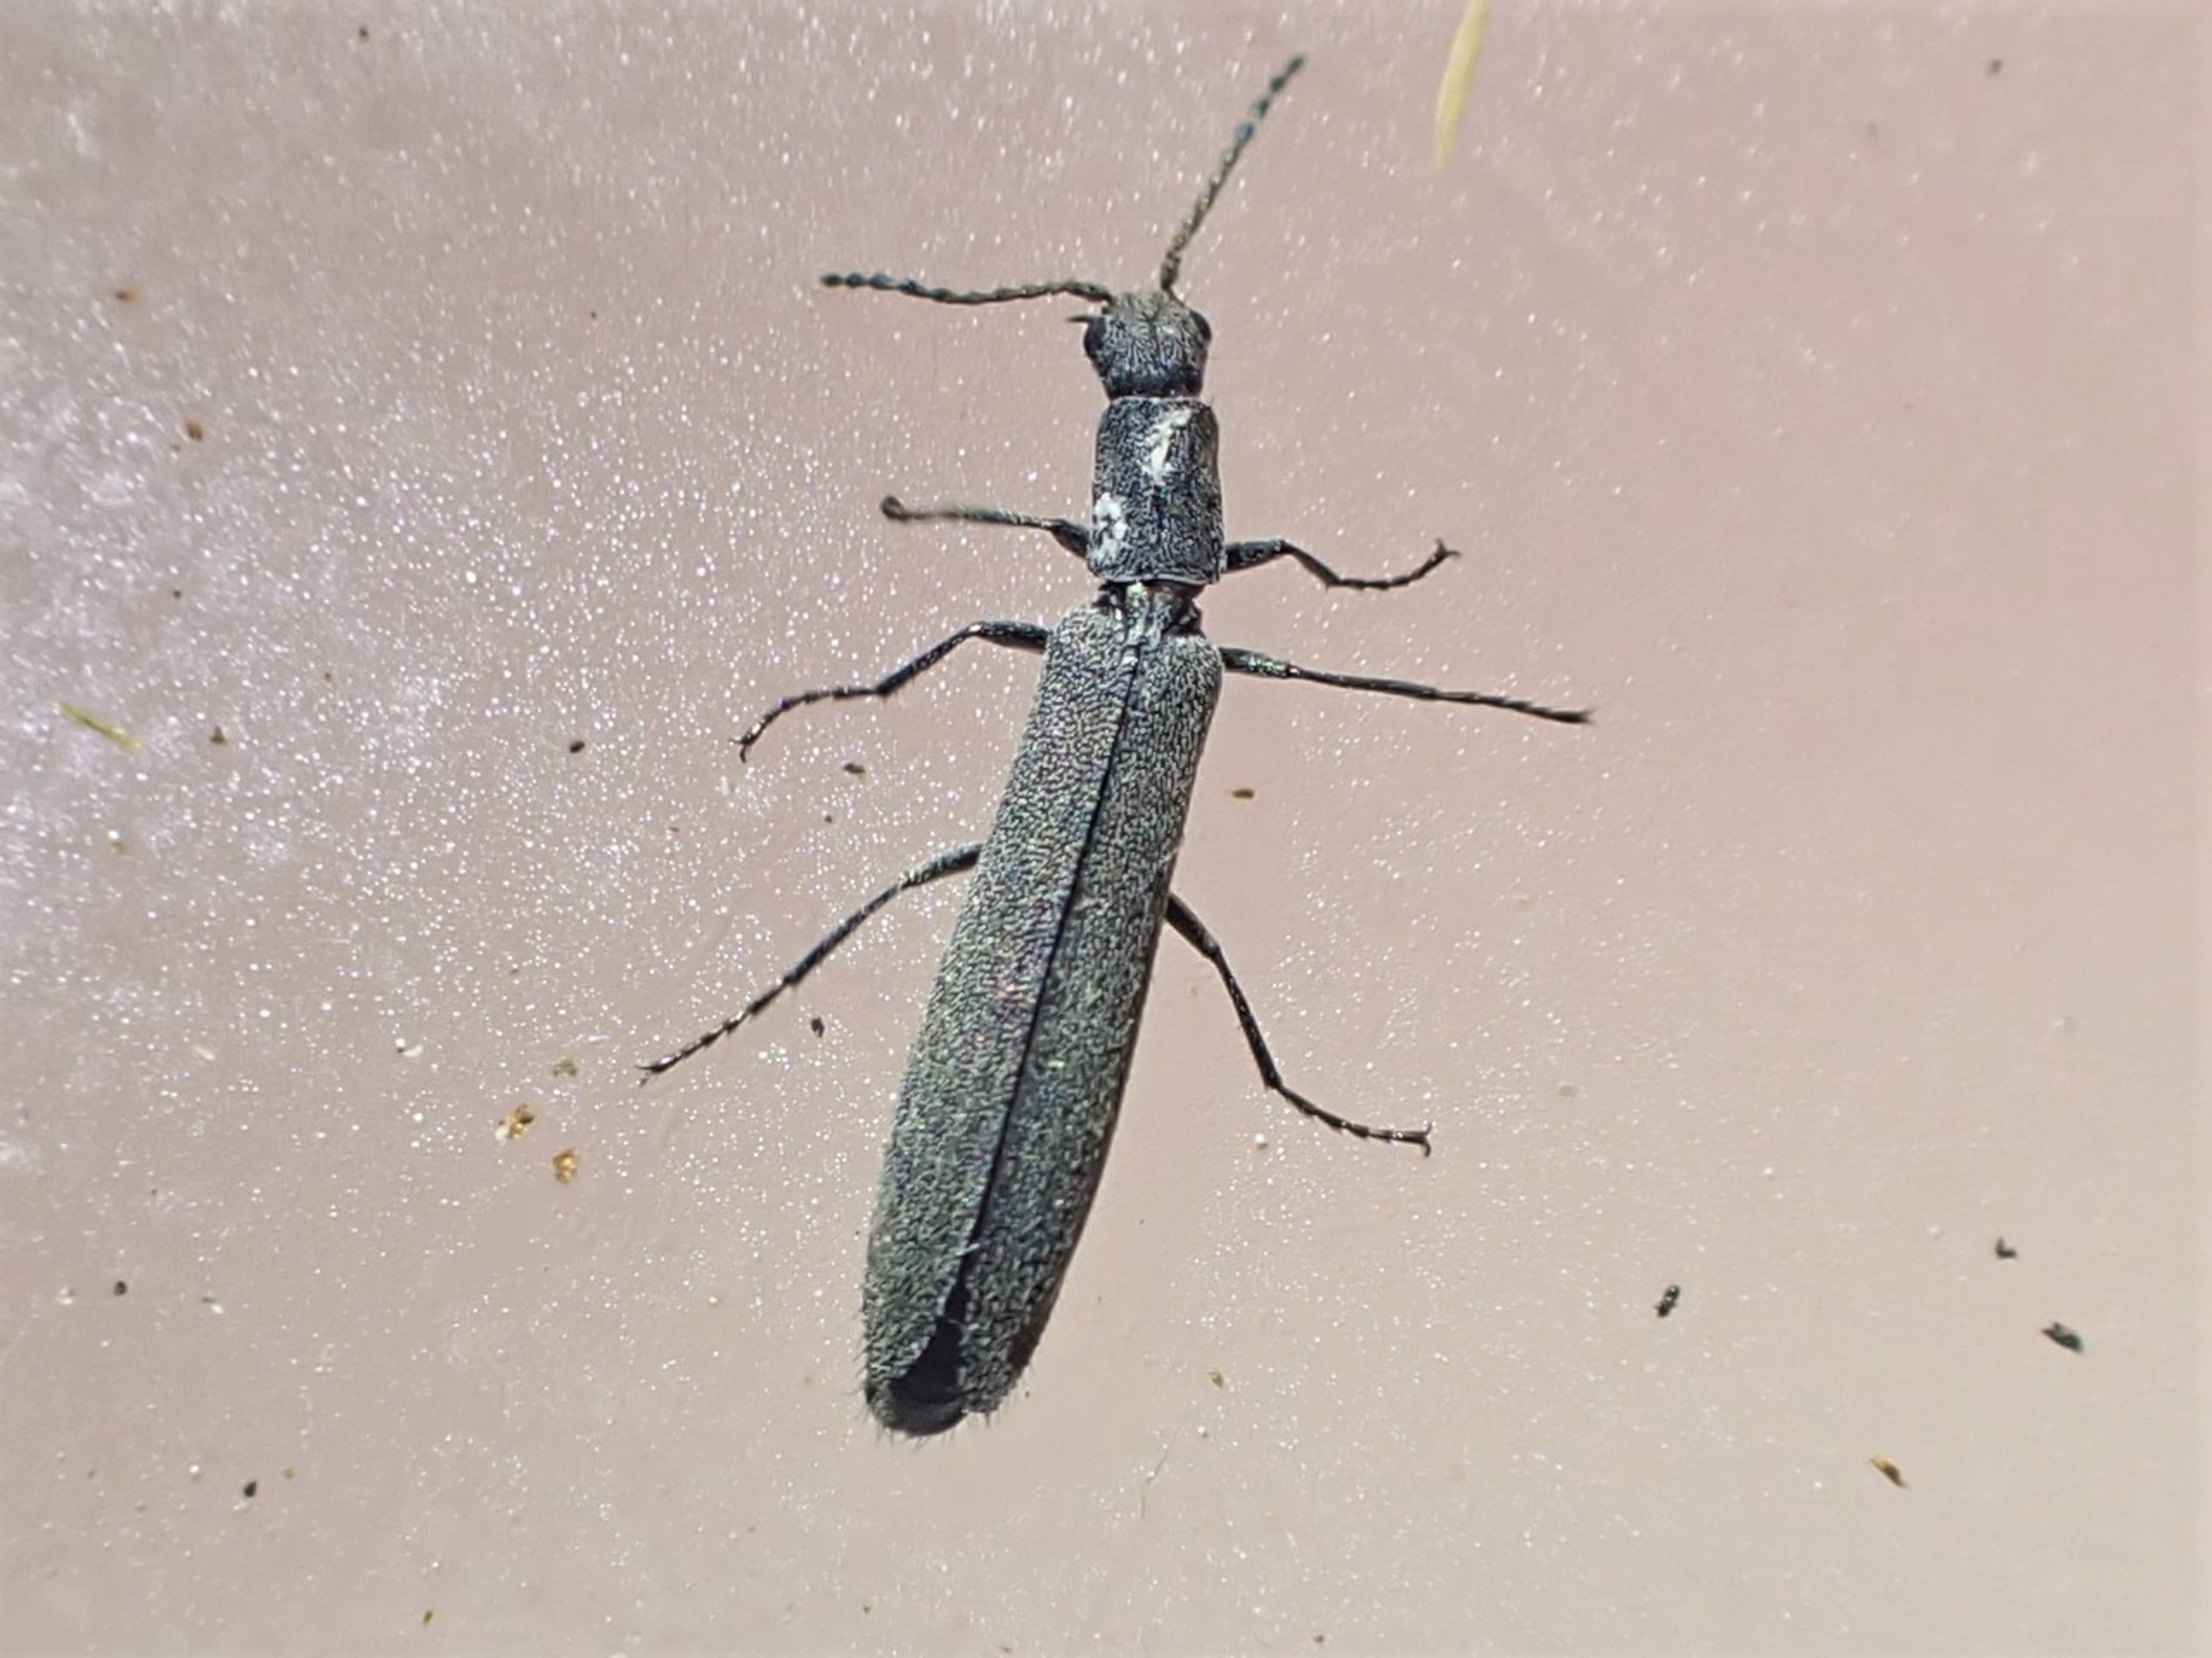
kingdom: Animalia
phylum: Arthropoda
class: Insecta
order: Coleoptera
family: Melyridae
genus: Dolichosoma
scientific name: Dolichosoma lineare
